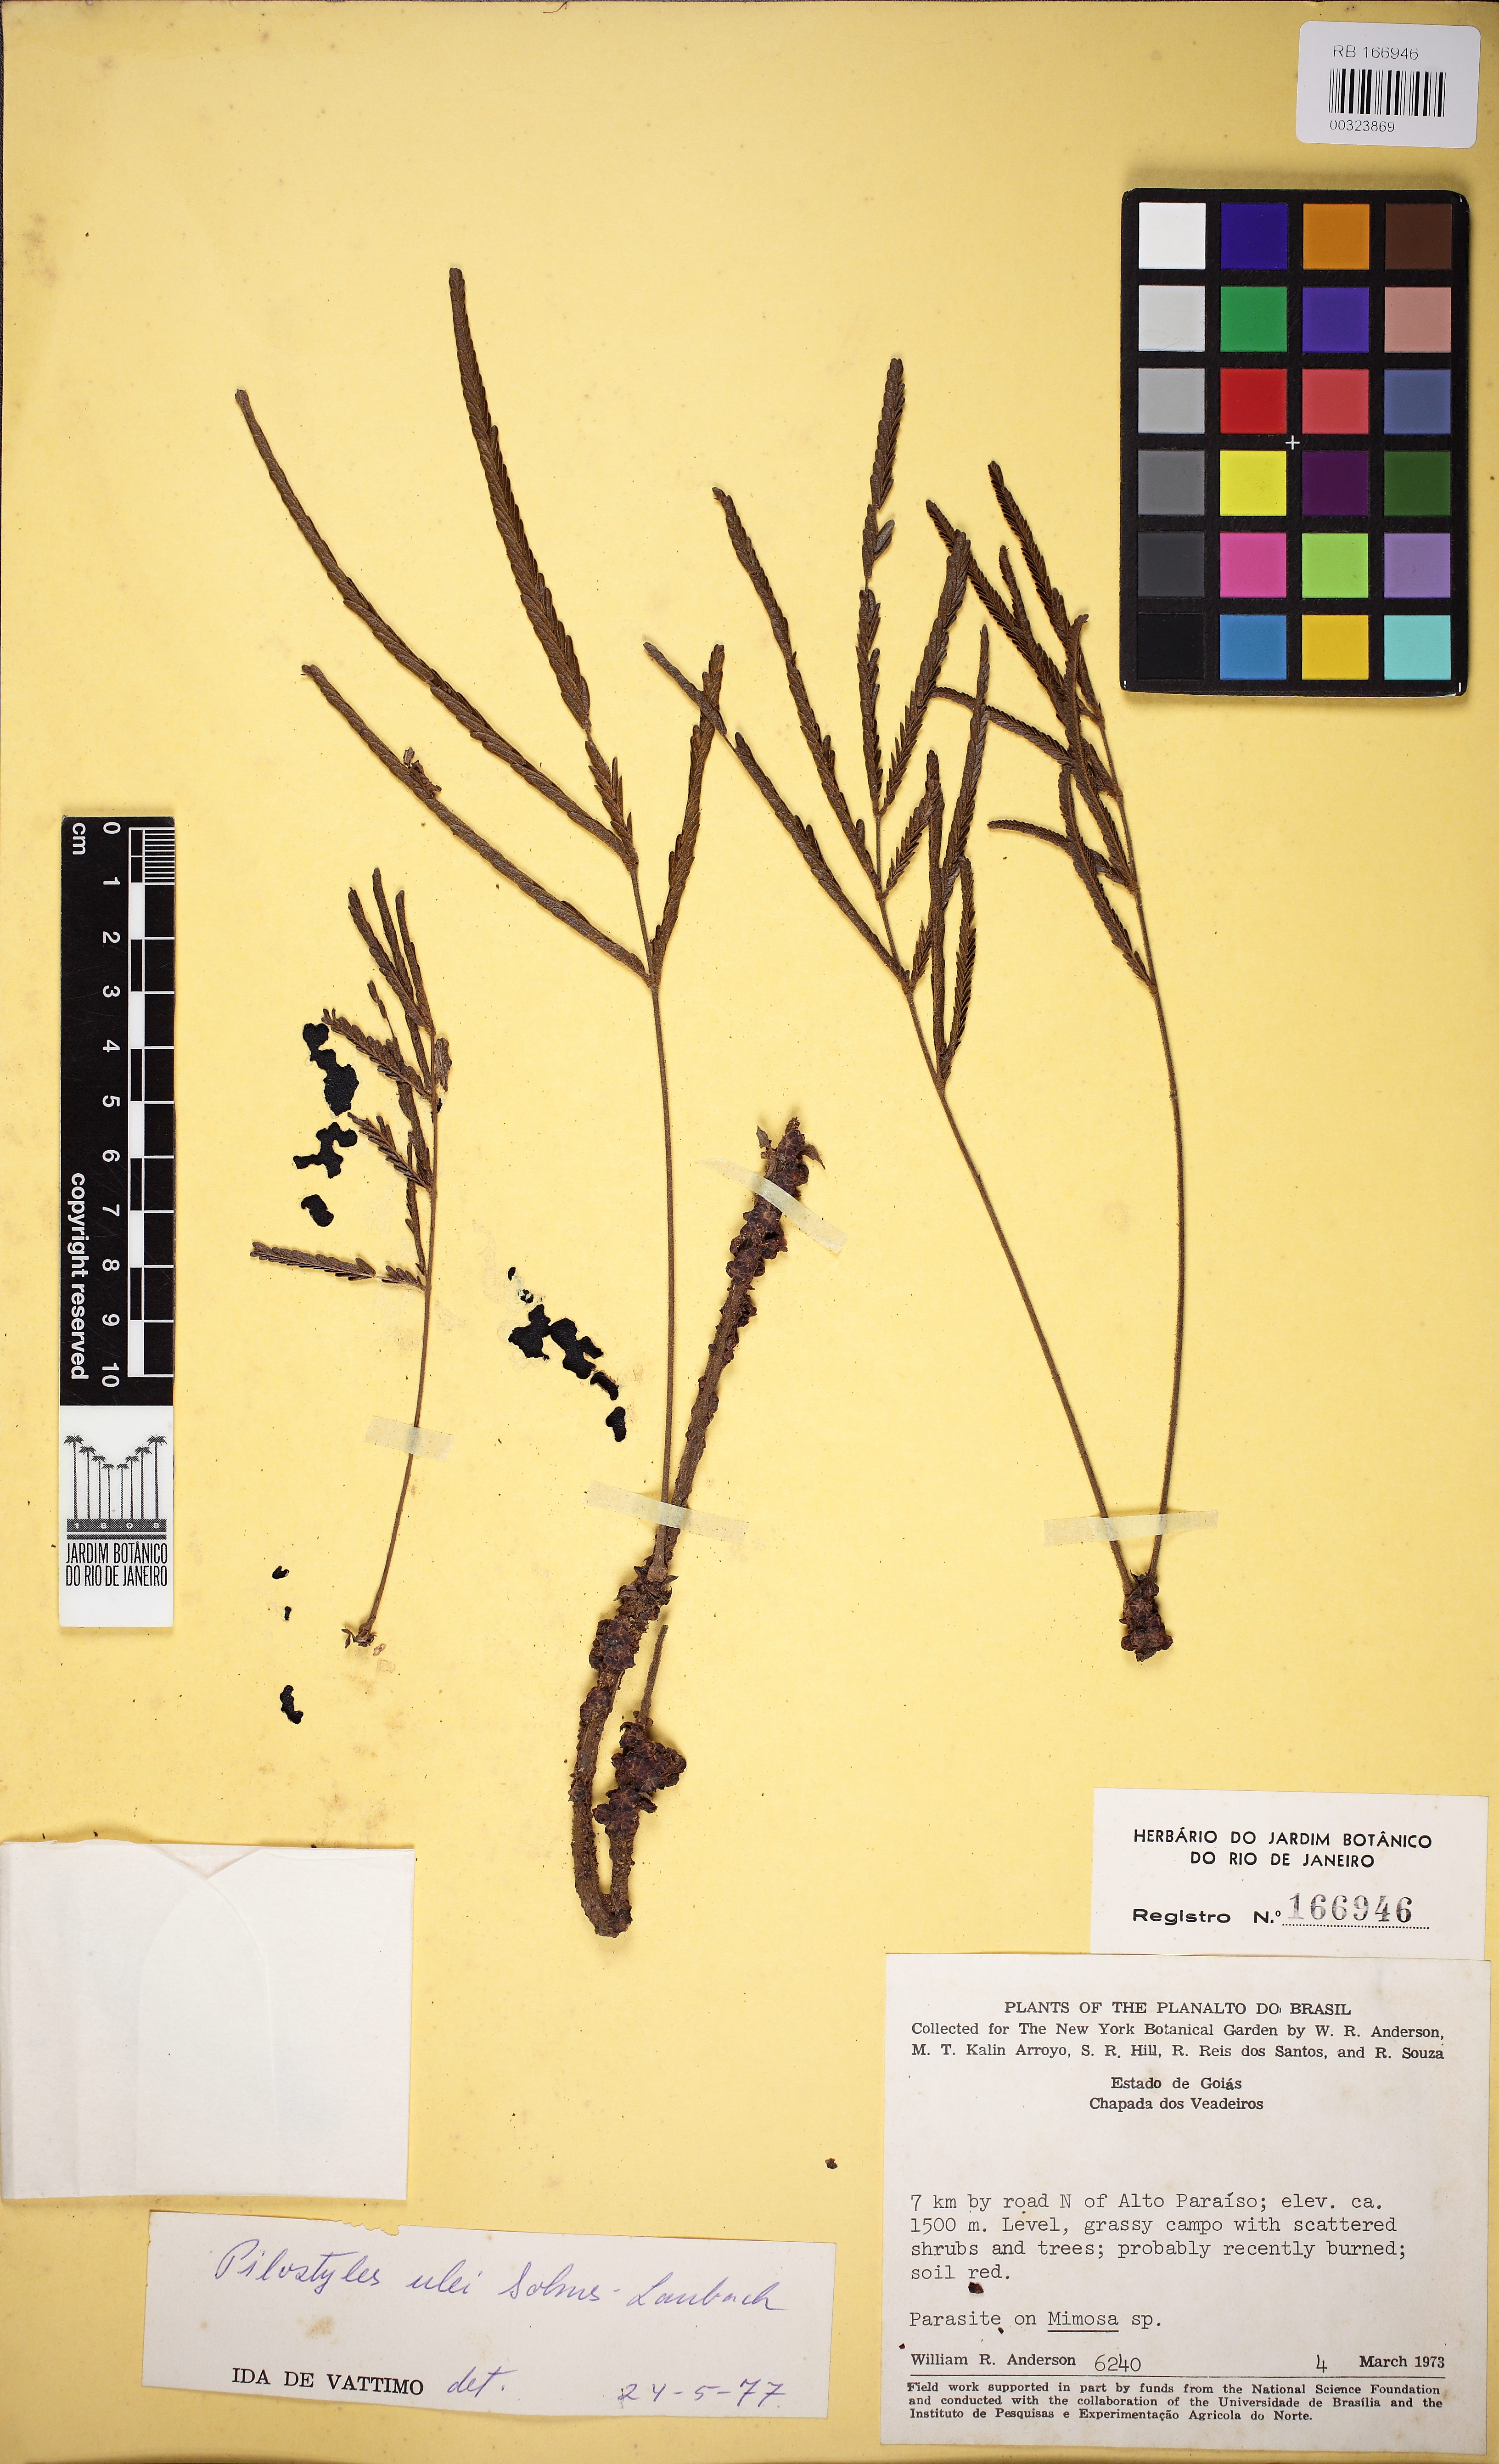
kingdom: Plantae
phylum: Tracheophyta
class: Magnoliopsida
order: Cucurbitales
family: Apodanthaceae
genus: Pilostyles
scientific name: Pilostyles blanchetii
